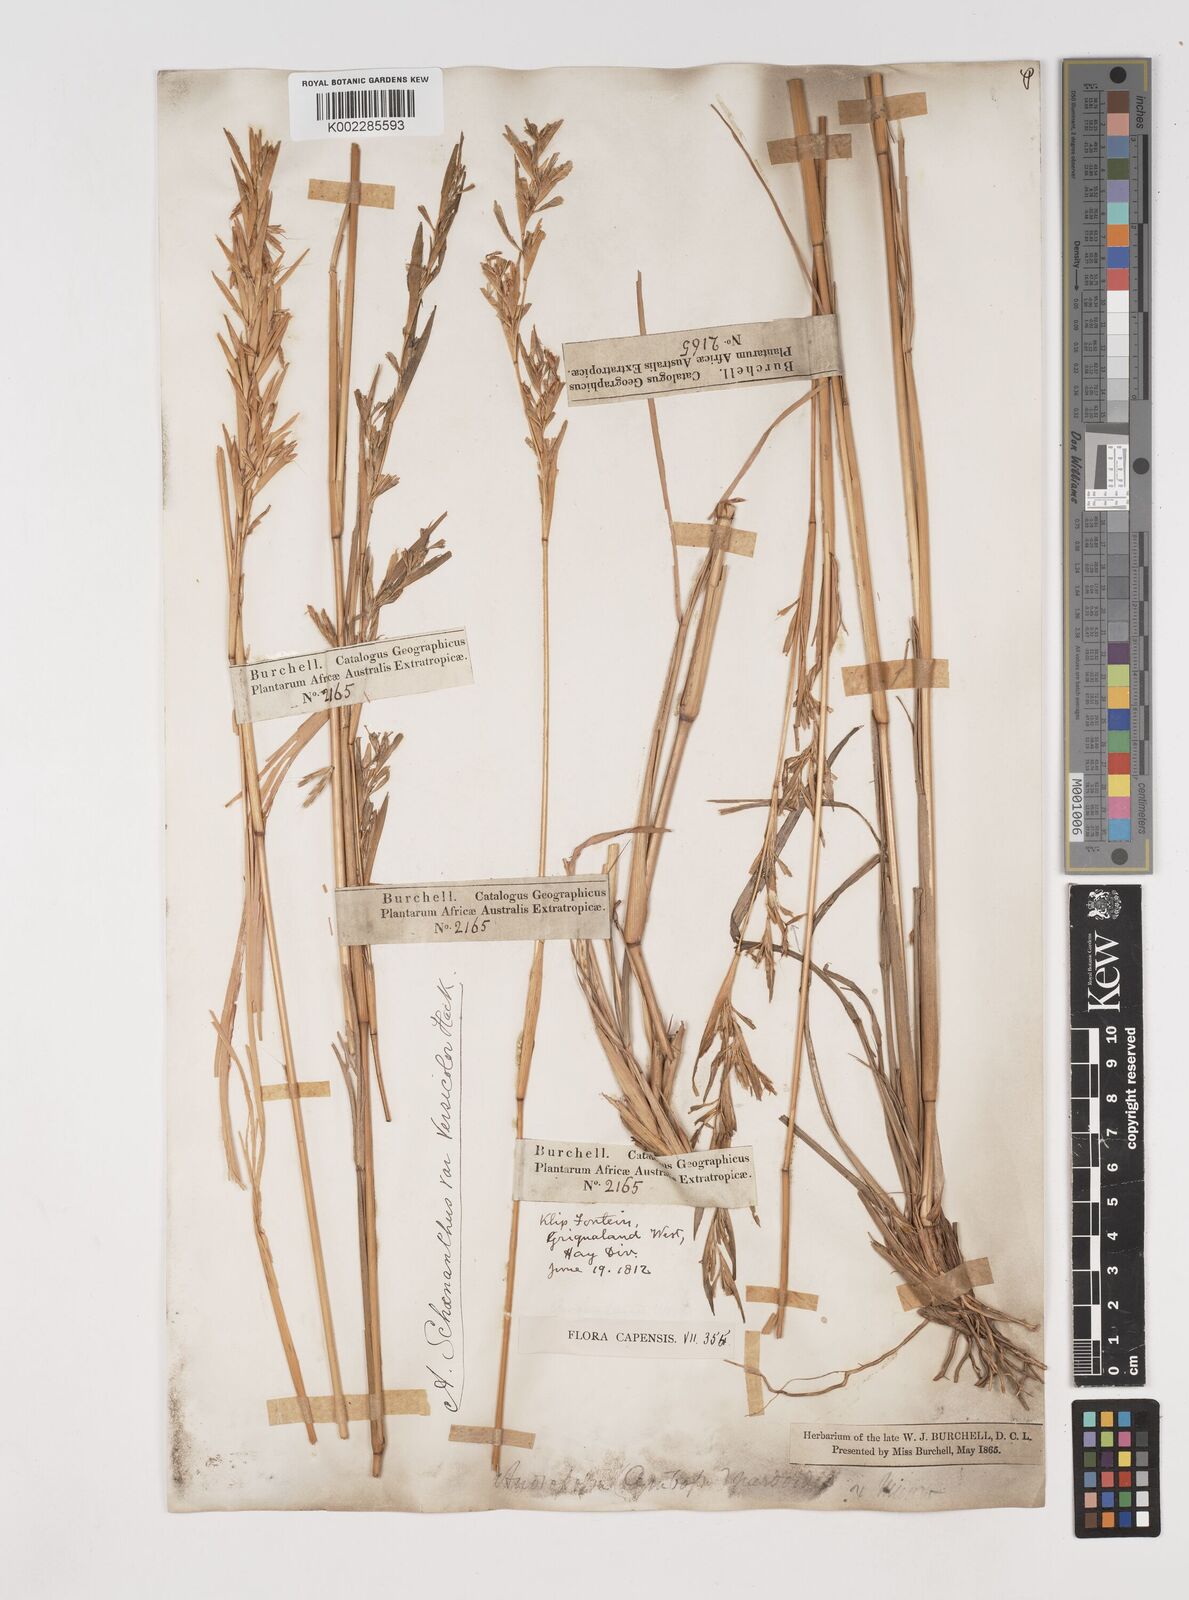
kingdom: Plantae
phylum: Tracheophyta
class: Liliopsida
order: Poales
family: Poaceae
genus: Cymbopogon
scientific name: Cymbopogon caesius
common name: Kachi grass
